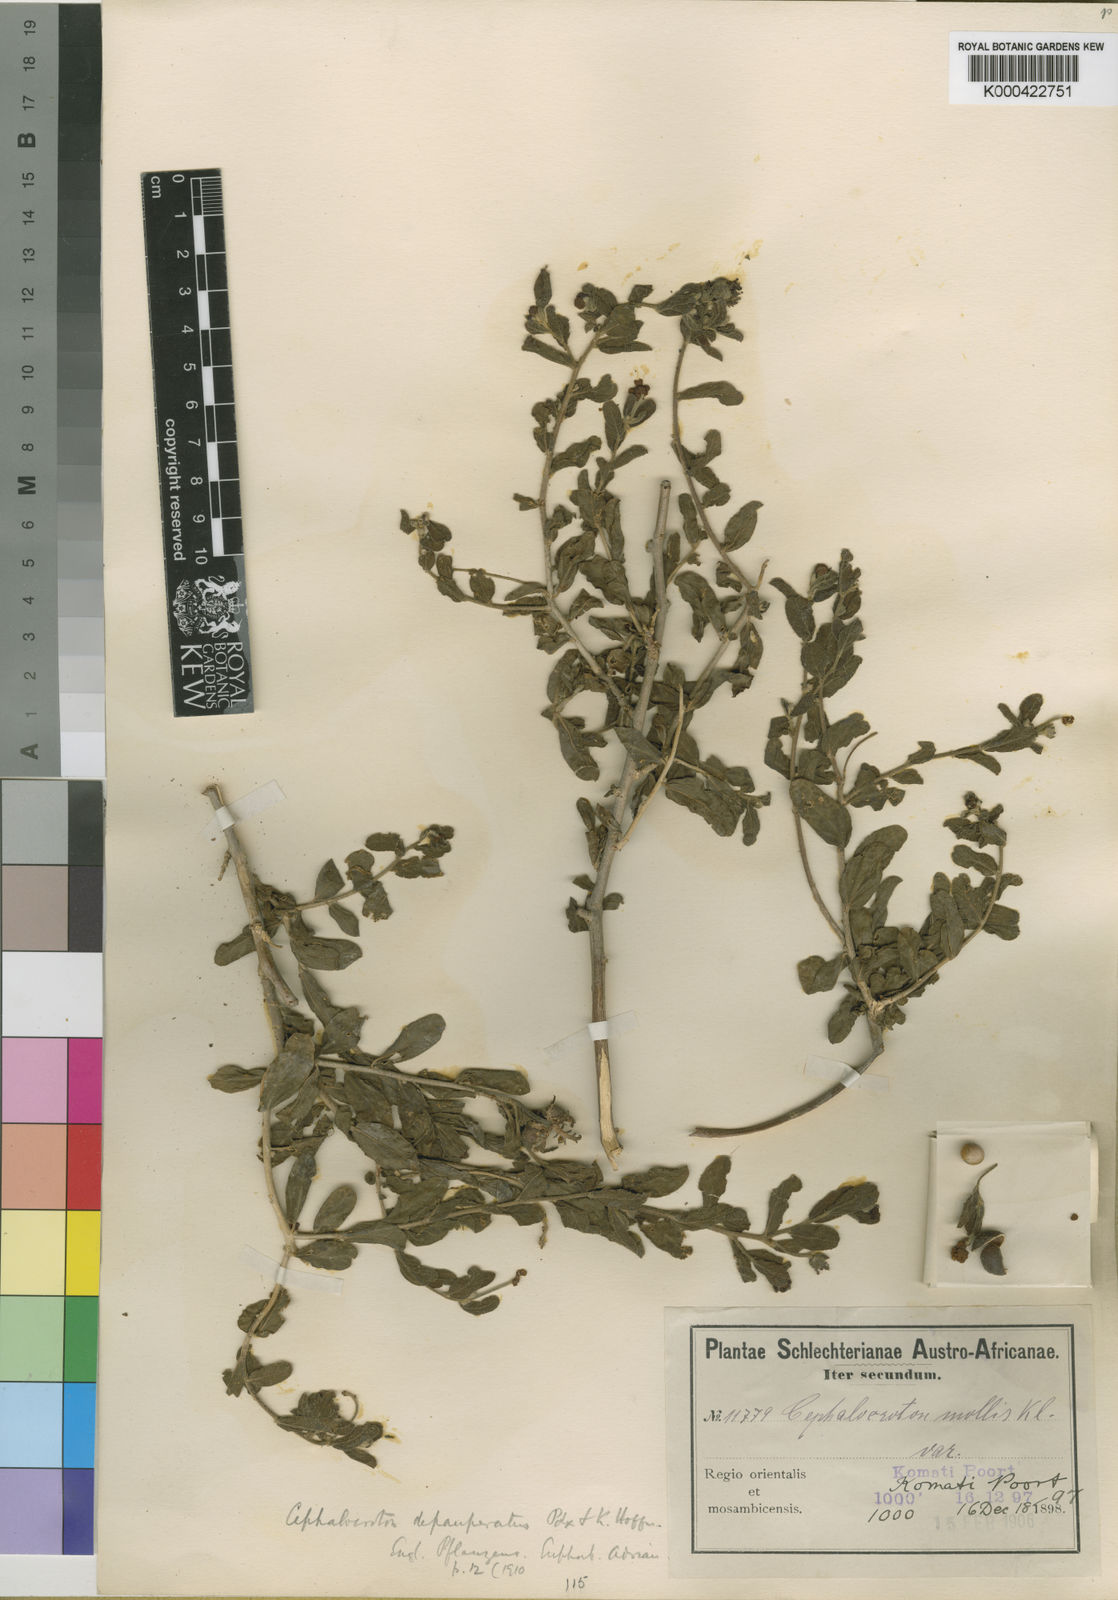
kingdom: Plantae
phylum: Tracheophyta
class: Magnoliopsida
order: Malpighiales
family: Euphorbiaceae
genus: Cephalocroton
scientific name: Cephalocroton mollis
